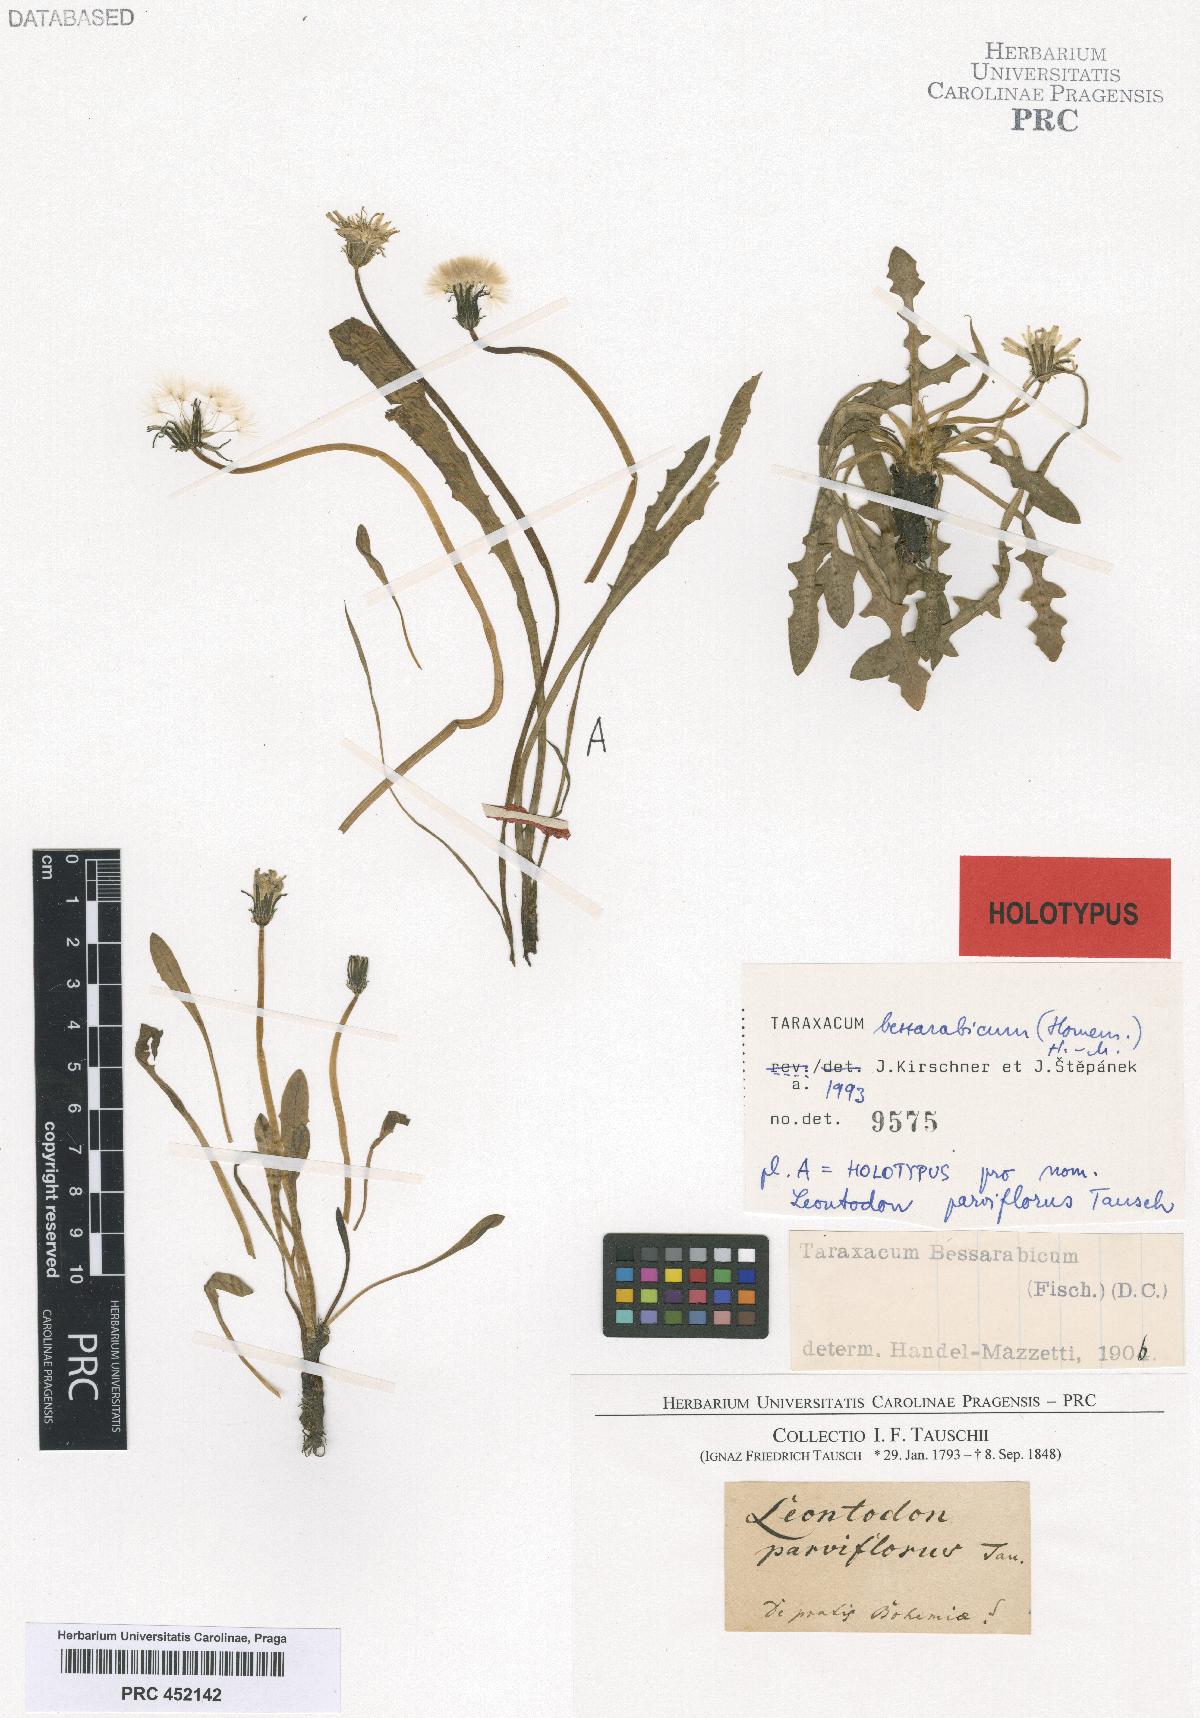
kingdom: Plantae
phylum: Tracheophyta
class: Magnoliopsida
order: Asterales
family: Asteraceae
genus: Taraxacum
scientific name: Taraxacum bessarabicum
